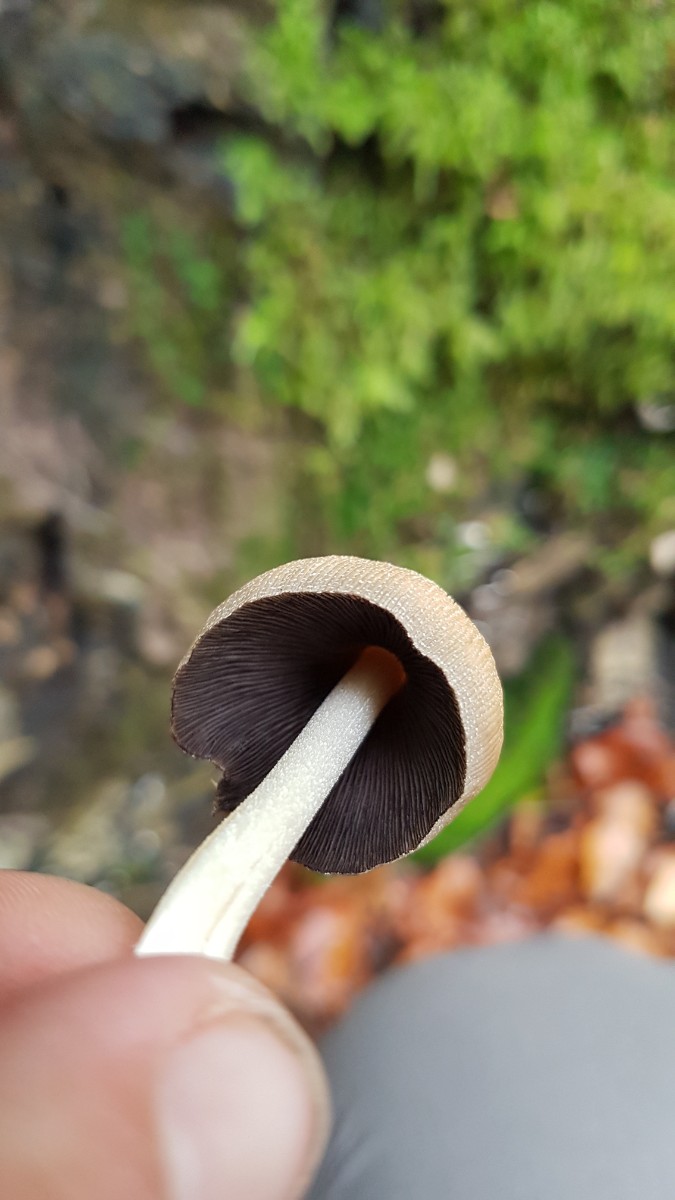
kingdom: Fungi
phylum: Basidiomycota
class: Agaricomycetes
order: Agaricales
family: Psathyrellaceae
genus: Coprinellus
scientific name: Coprinellus micaceus
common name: glimmer-blækhat
